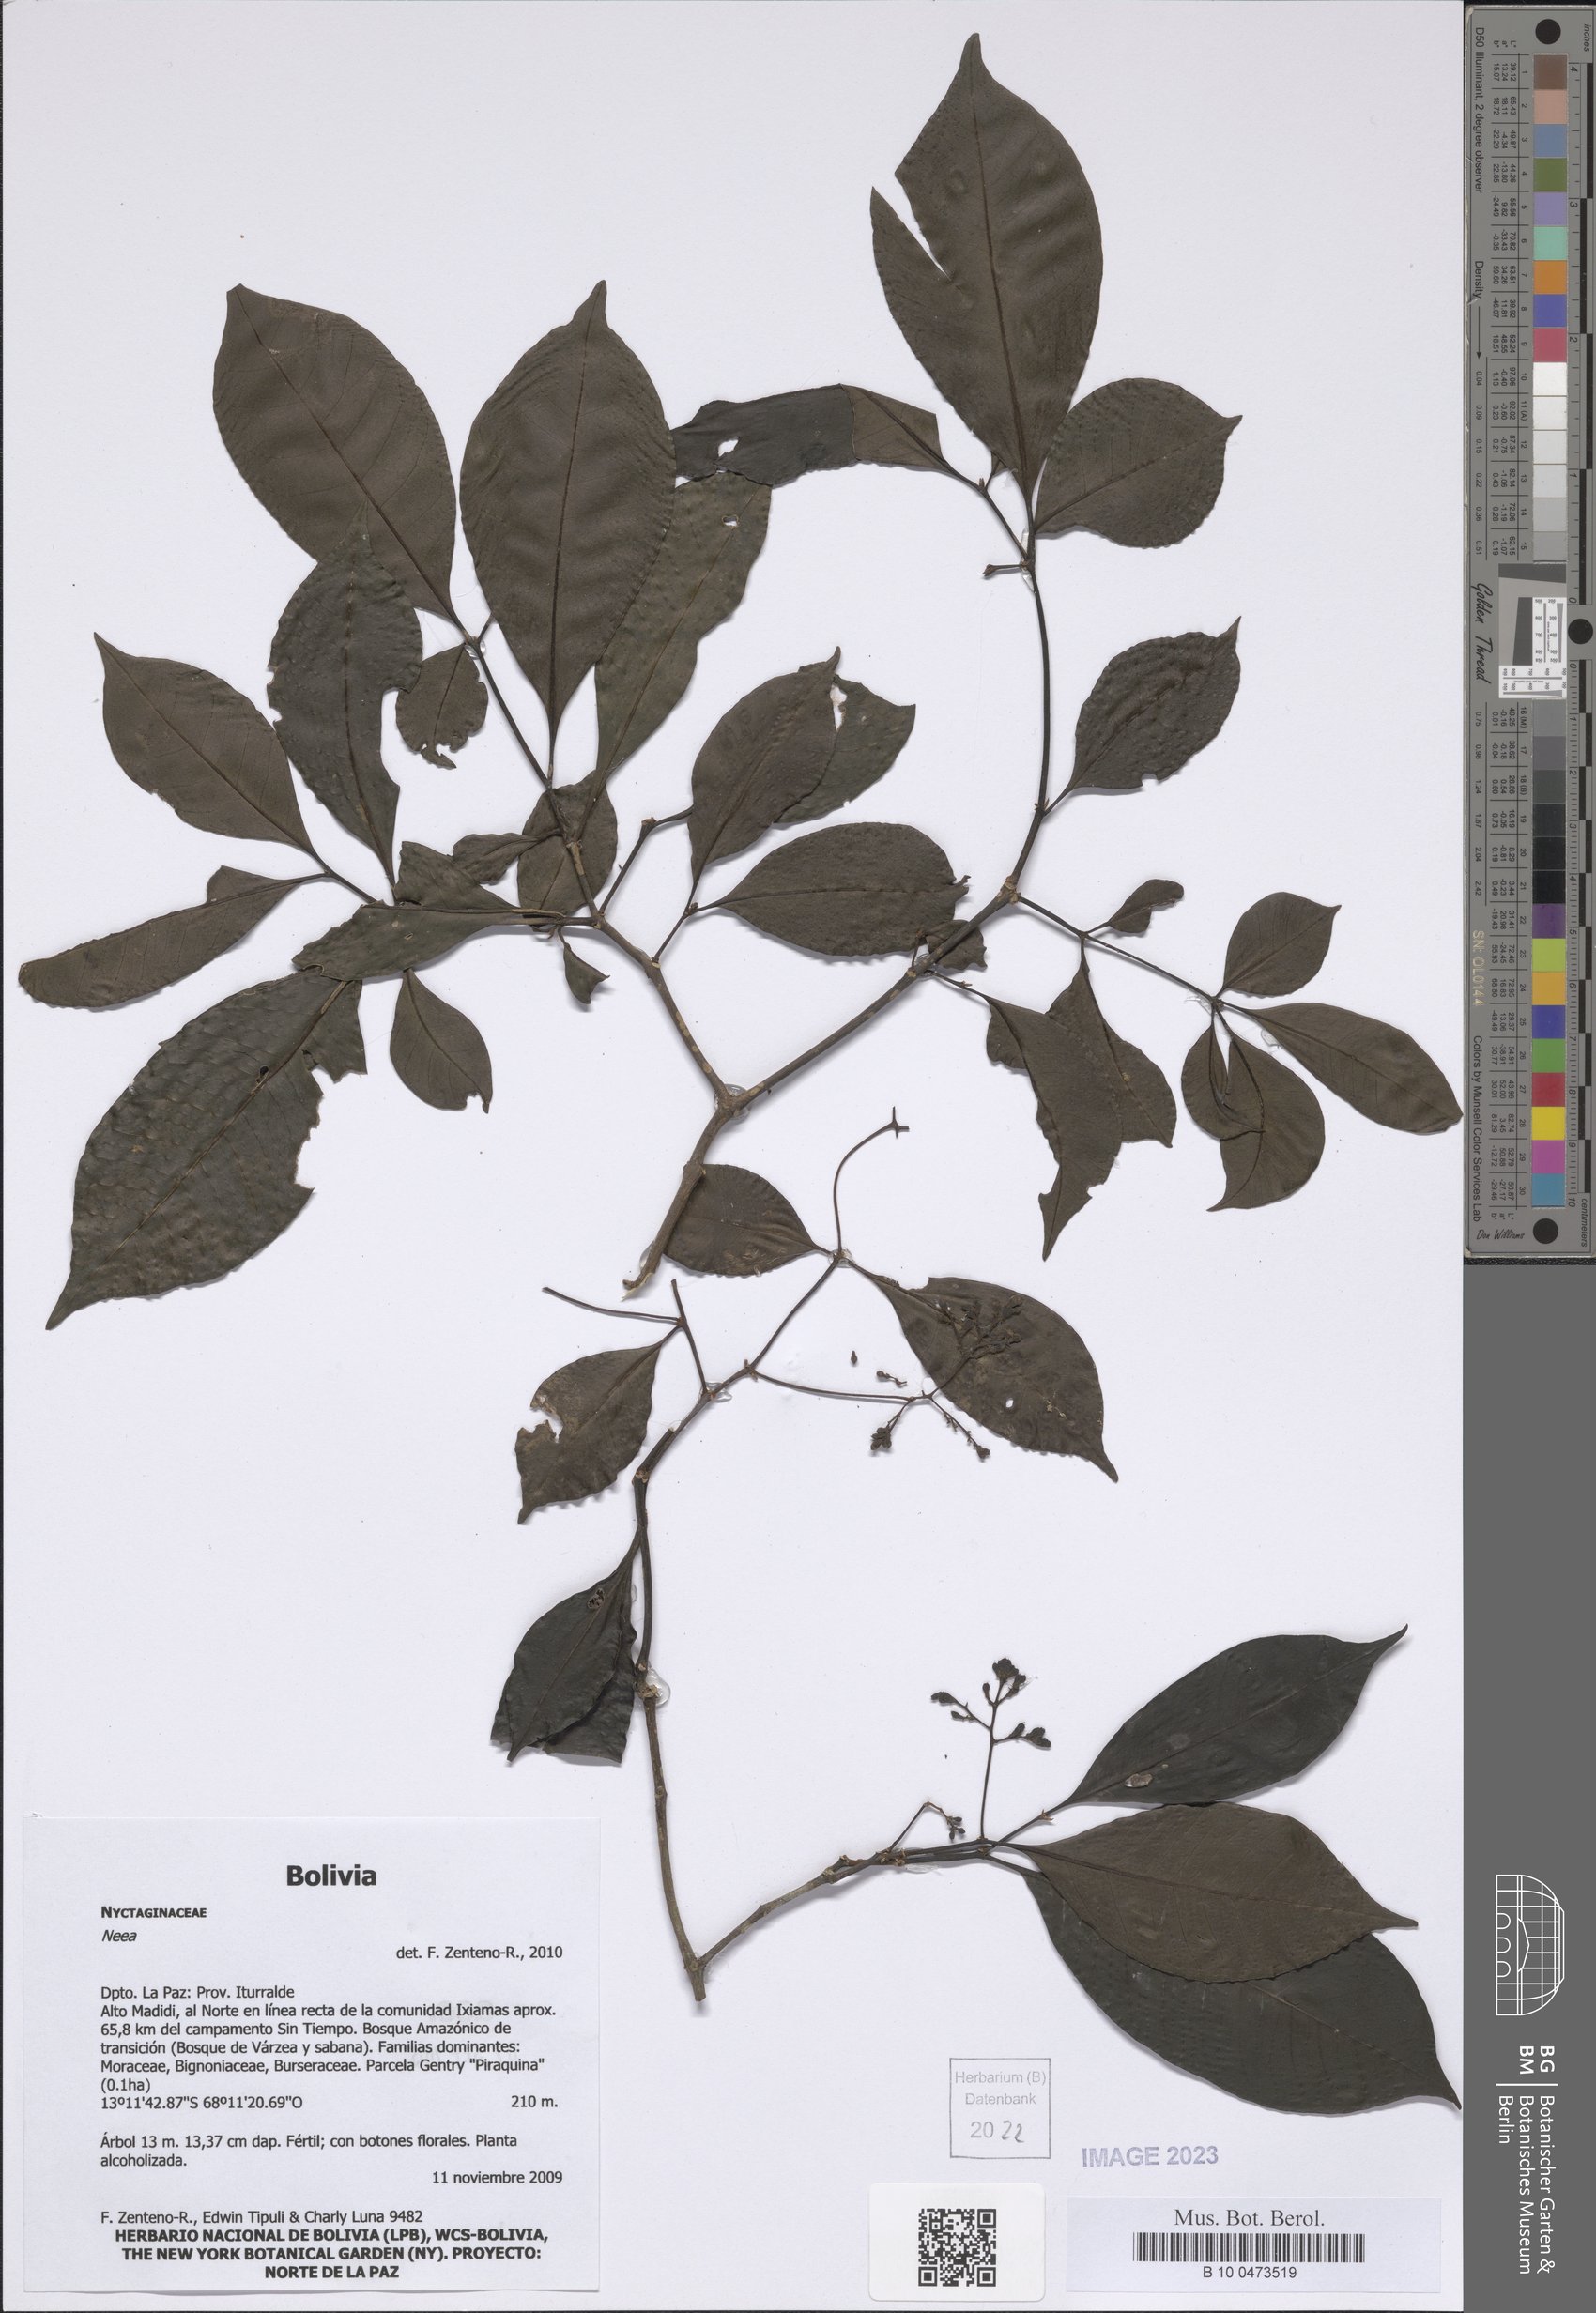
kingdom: Plantae
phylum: Tracheophyta
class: Magnoliopsida
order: Caryophyllales
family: Nyctaginaceae
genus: Neea
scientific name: Neea
